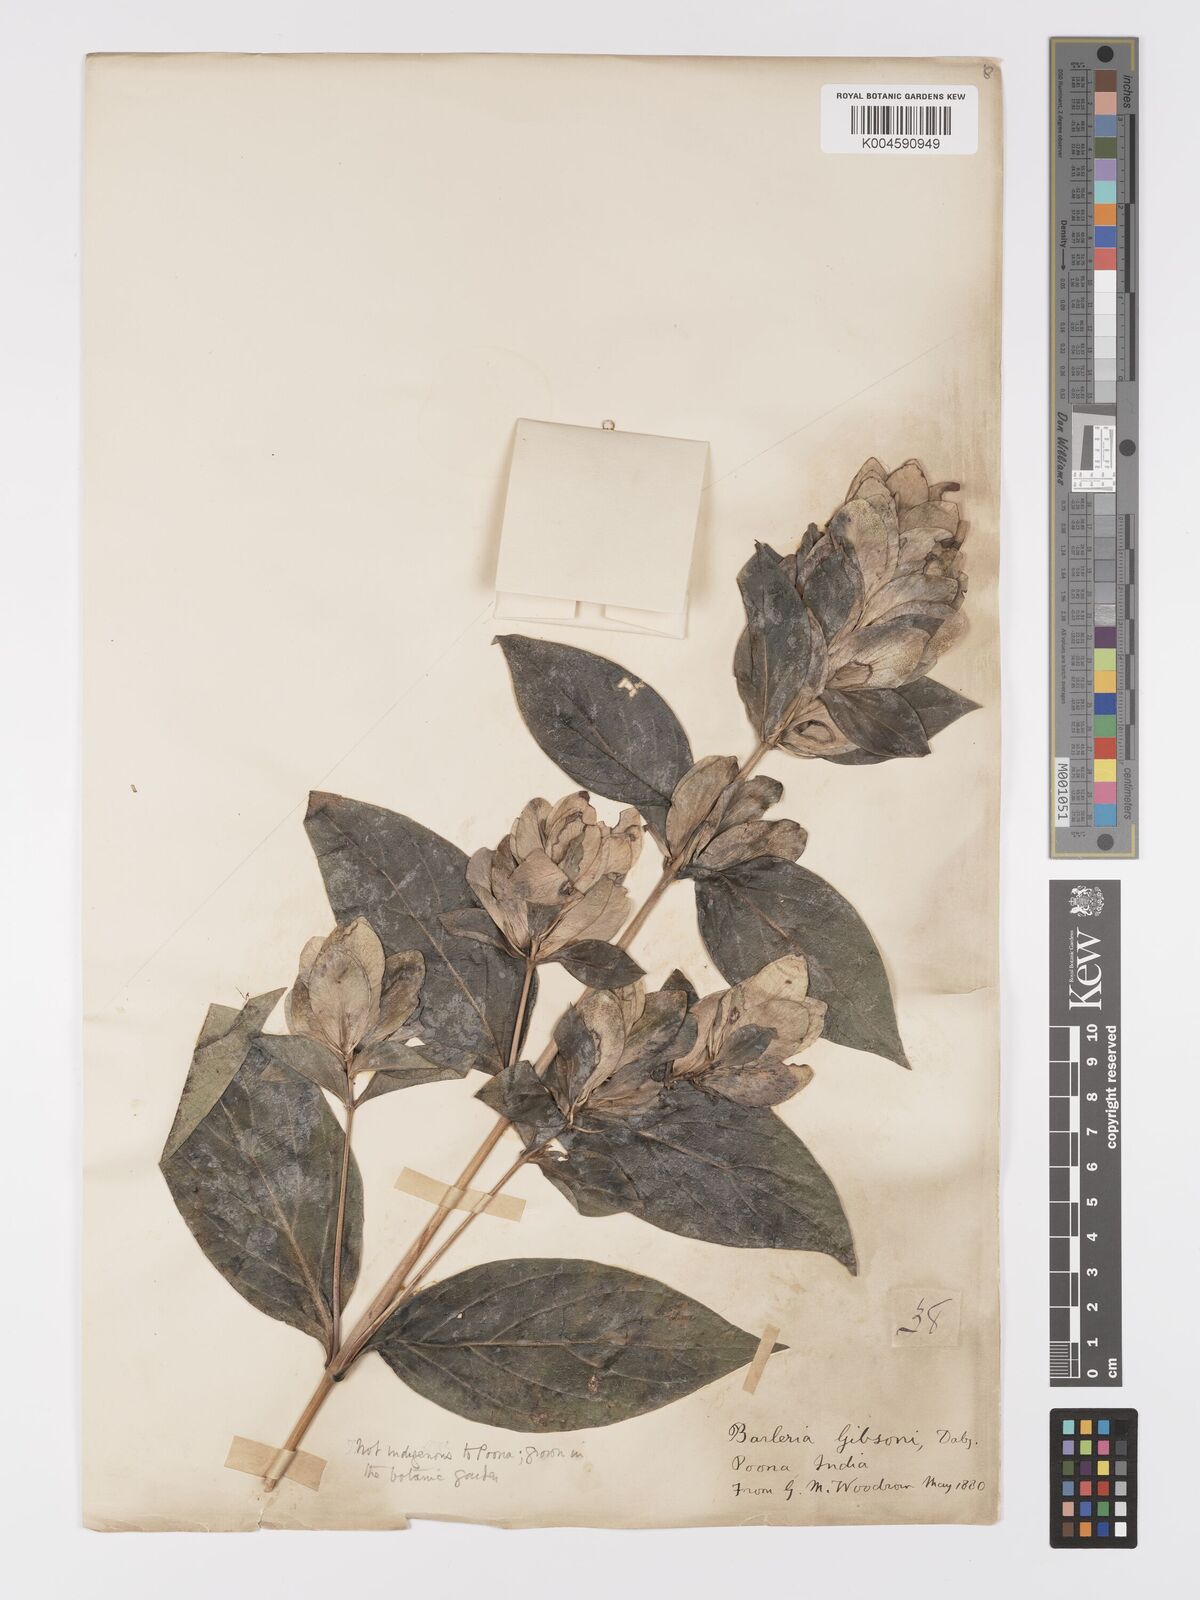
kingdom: Plantae
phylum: Tracheophyta
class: Magnoliopsida
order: Lamiales
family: Acanthaceae
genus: Barleria
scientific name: Barleria gibsonii
